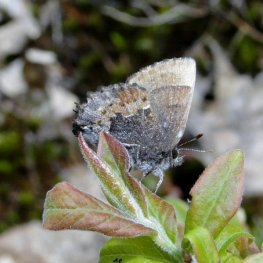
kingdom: Animalia
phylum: Arthropoda
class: Insecta
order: Lepidoptera
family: Lycaenidae
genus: Incisalia
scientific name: Incisalia henrici
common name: Henry's Elfin
